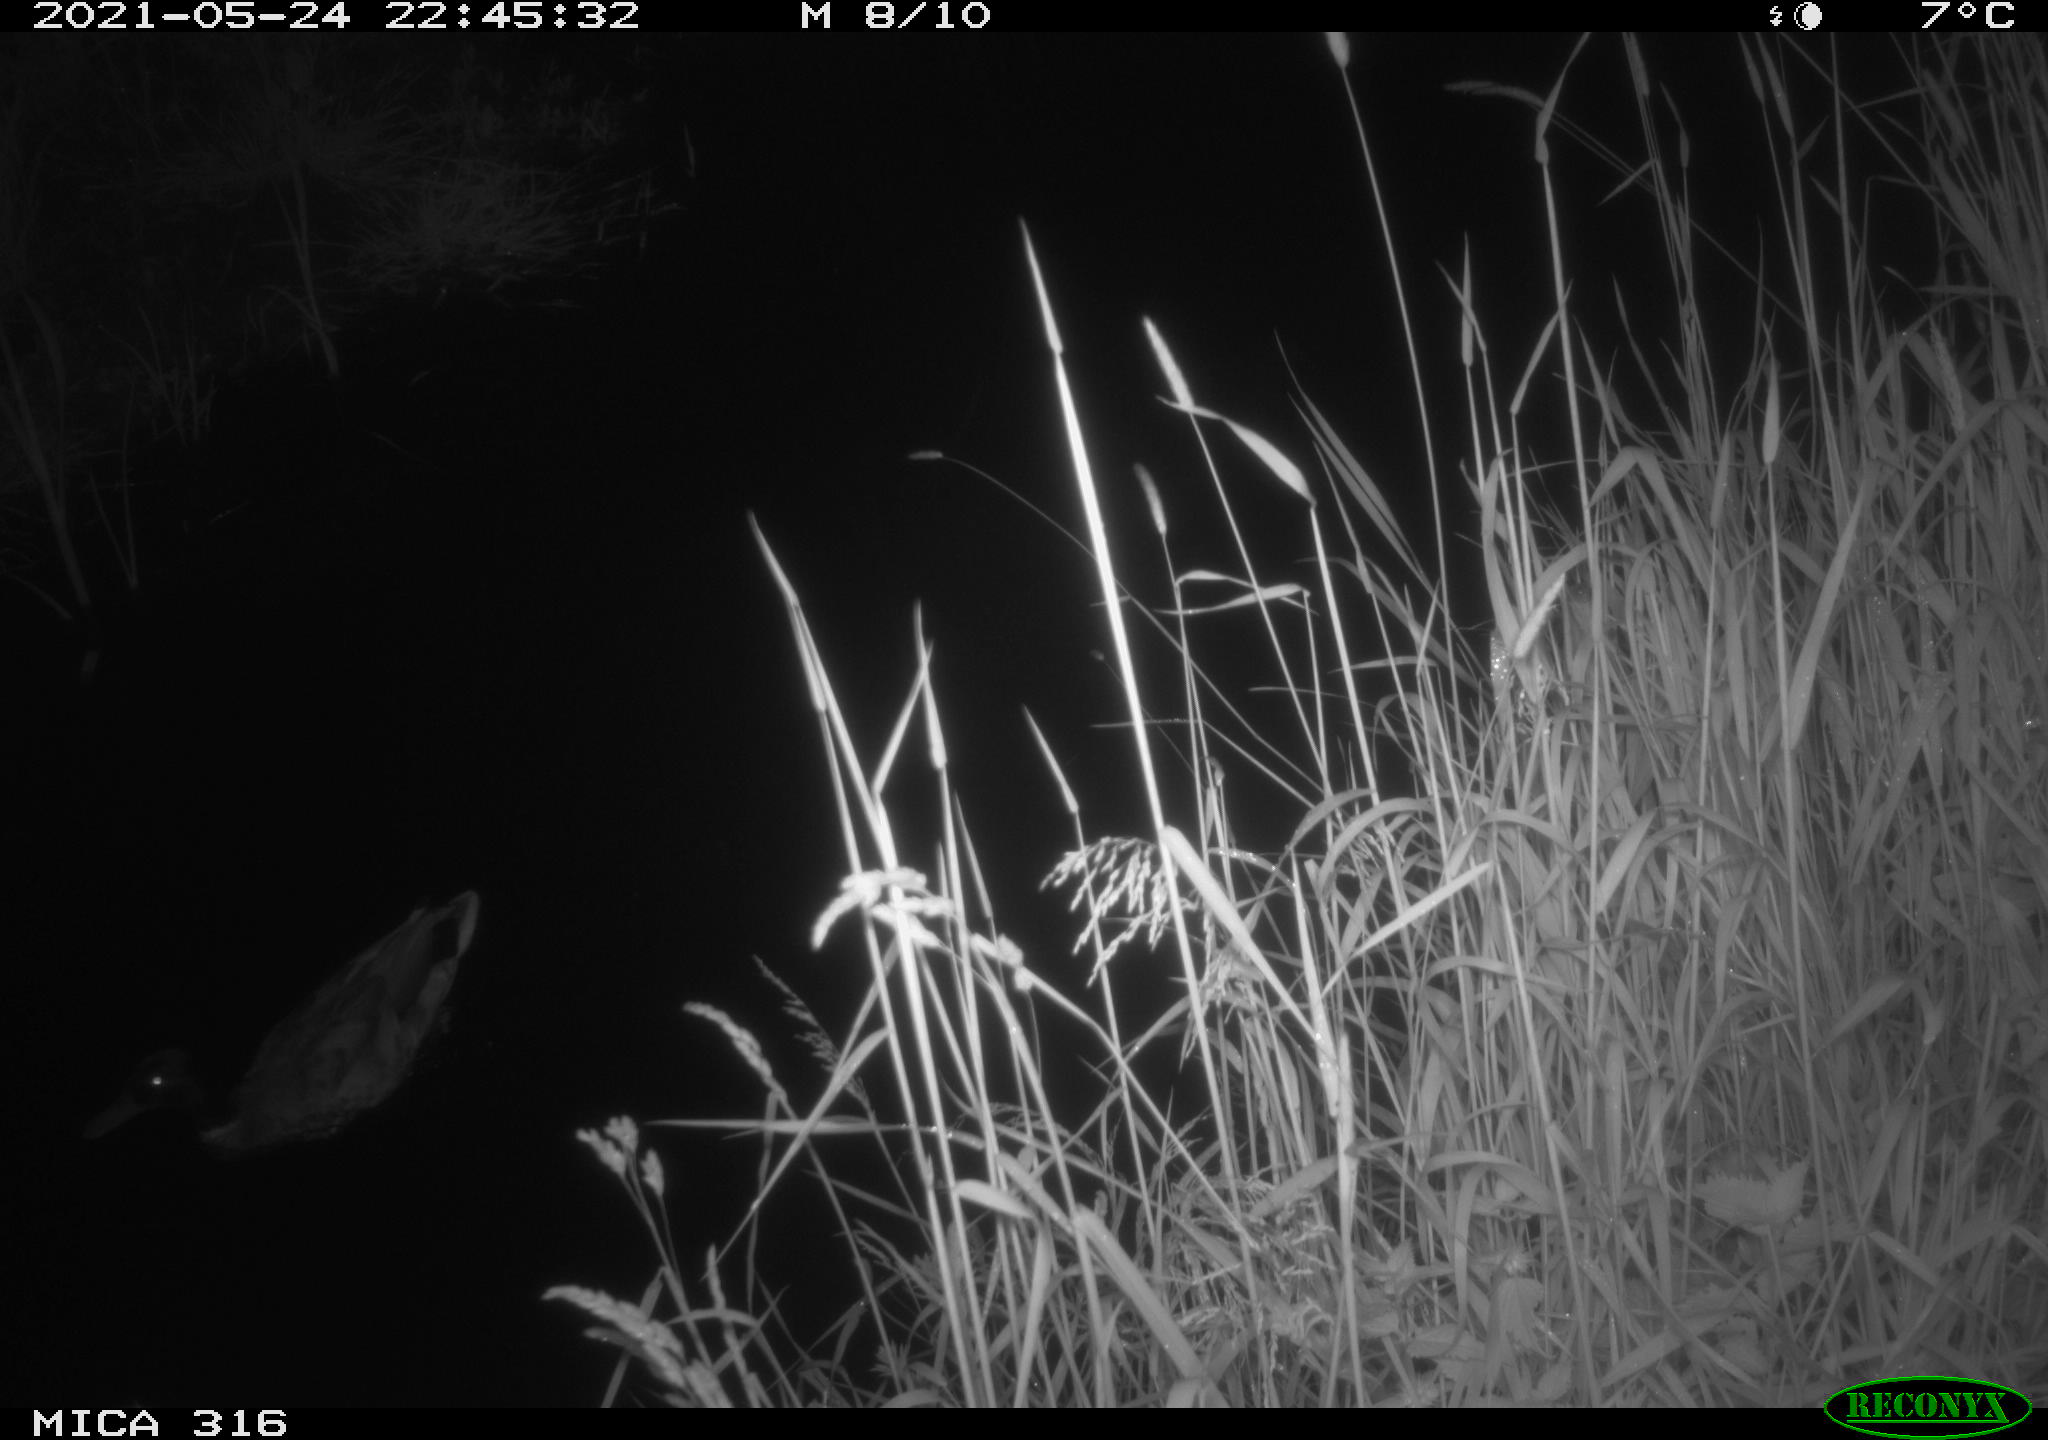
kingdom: Animalia
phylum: Chordata
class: Aves
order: Anseriformes
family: Anatidae
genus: Anas
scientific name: Anas platyrhynchos
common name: Mallard
